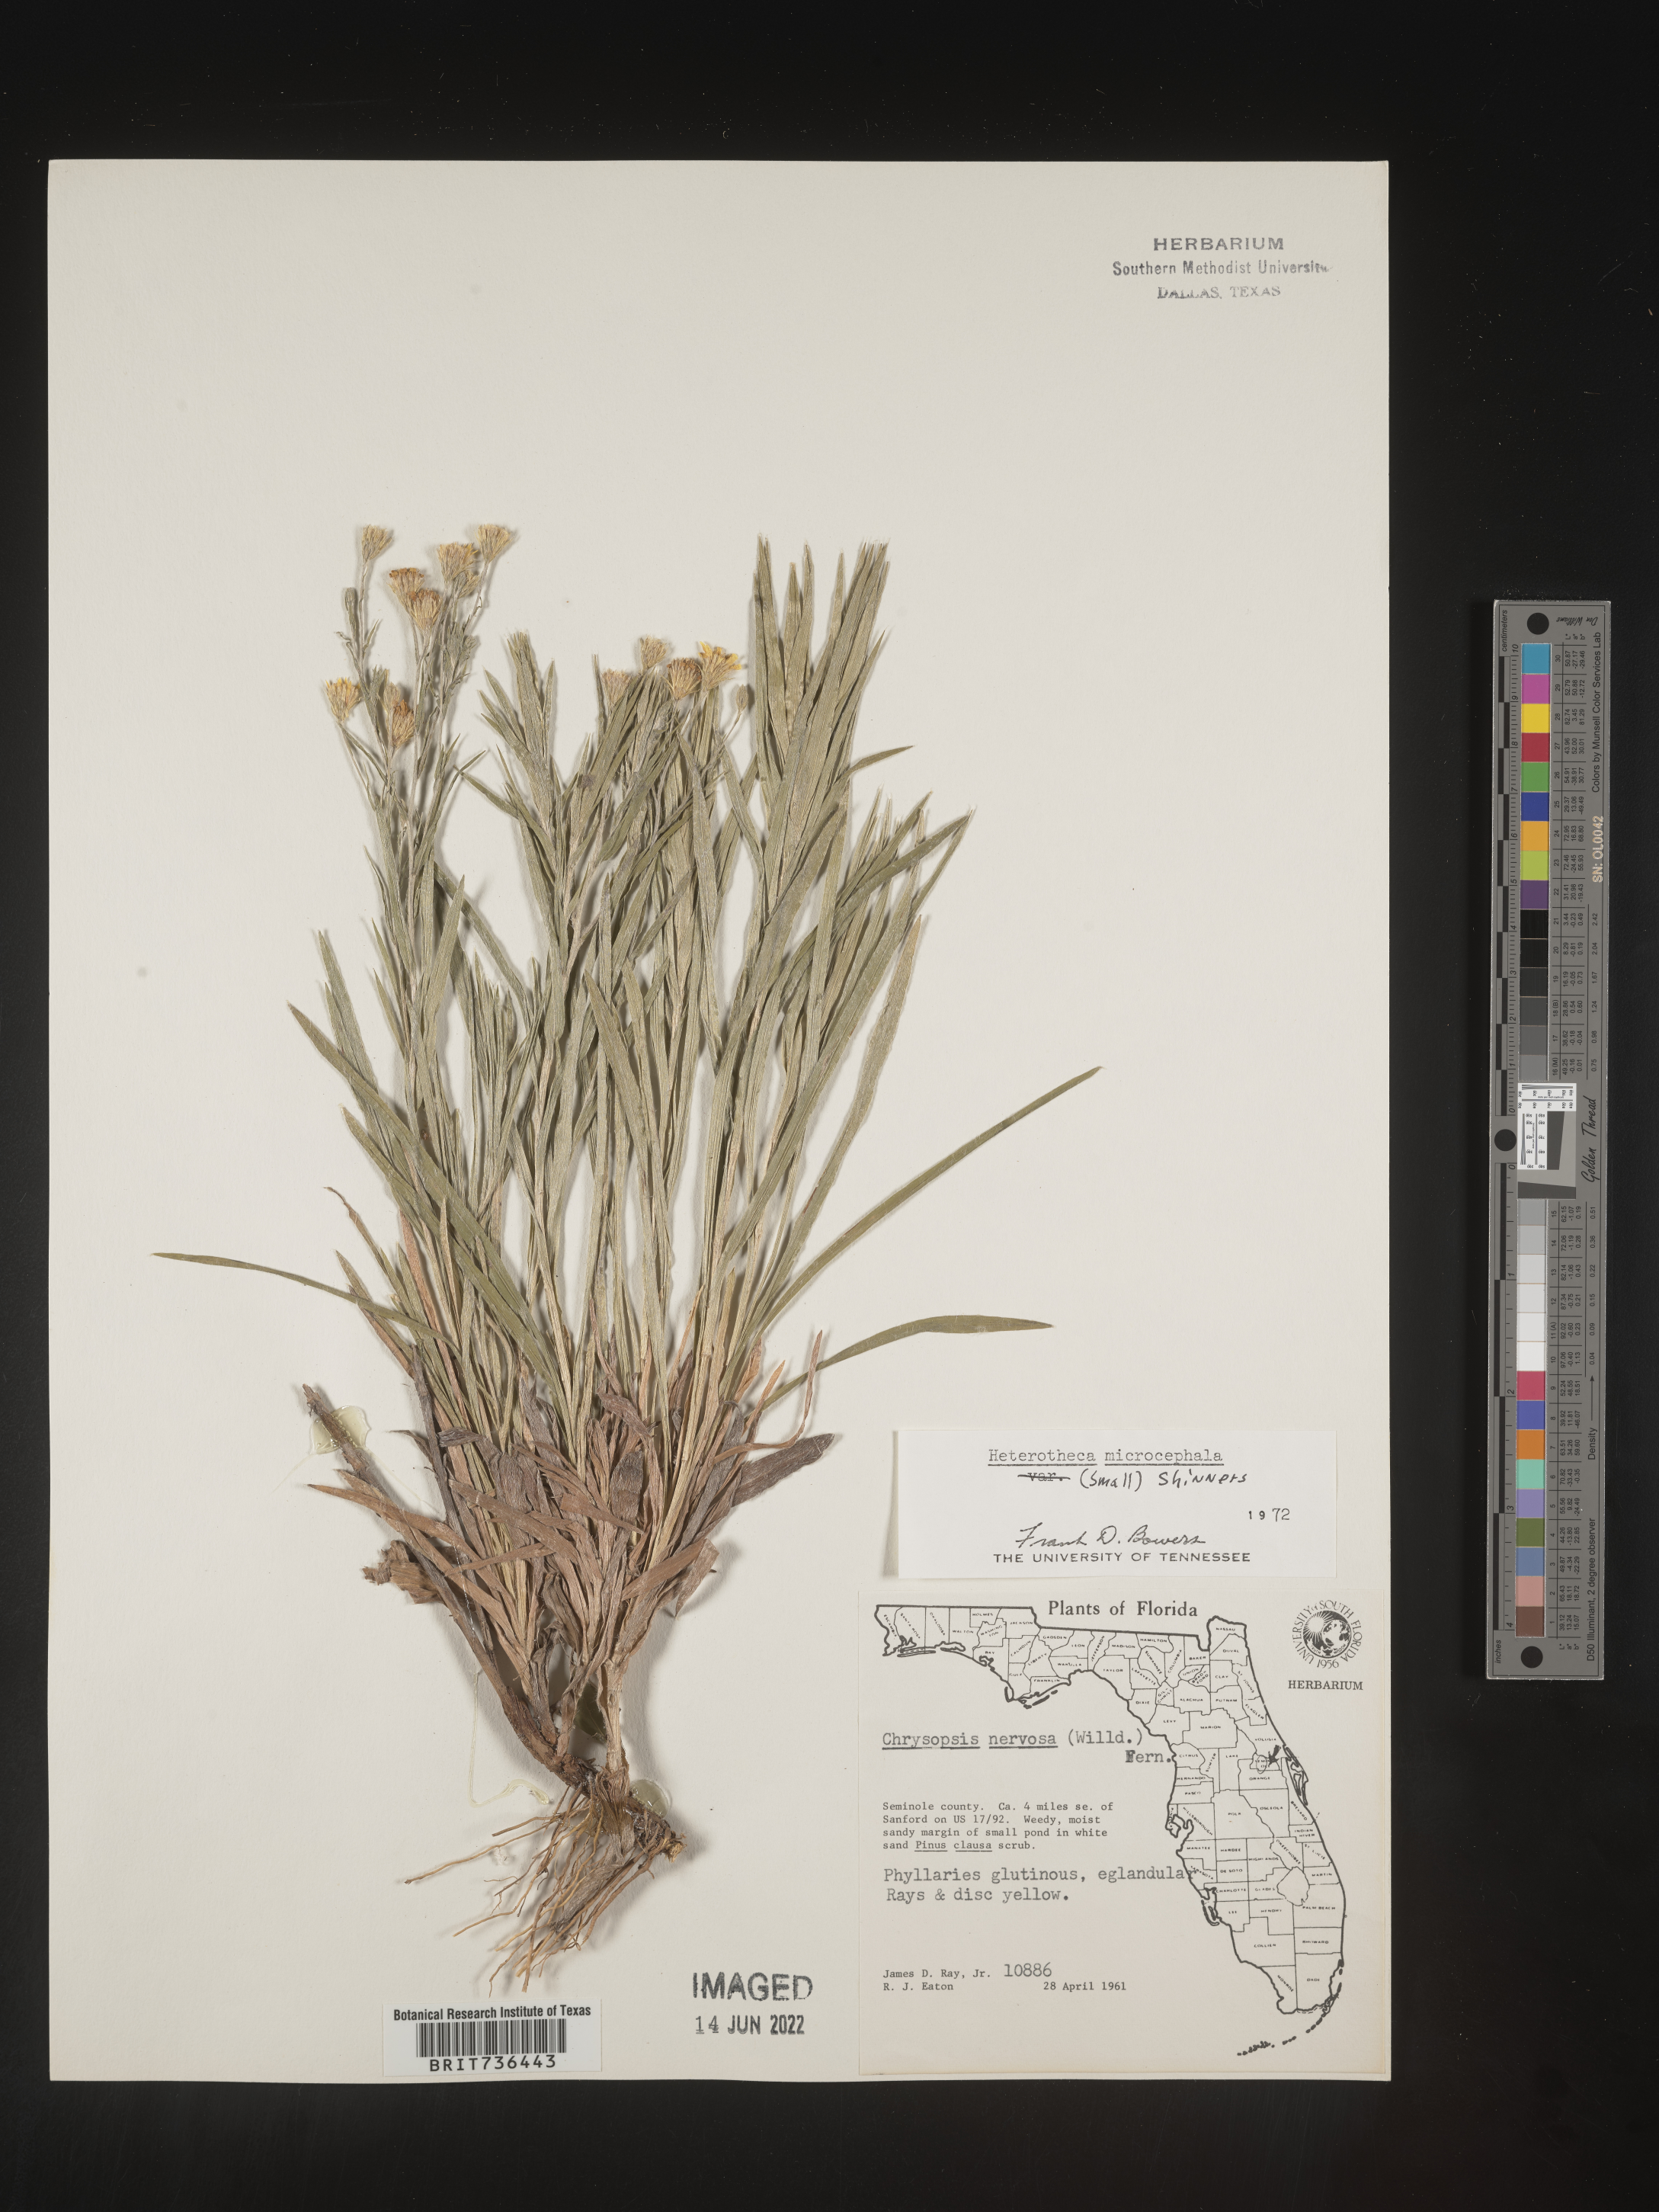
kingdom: Plantae
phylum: Tracheophyta
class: Magnoliopsida
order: Asterales
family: Asteraceae
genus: Pityopsis
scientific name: Pityopsis tracyi
